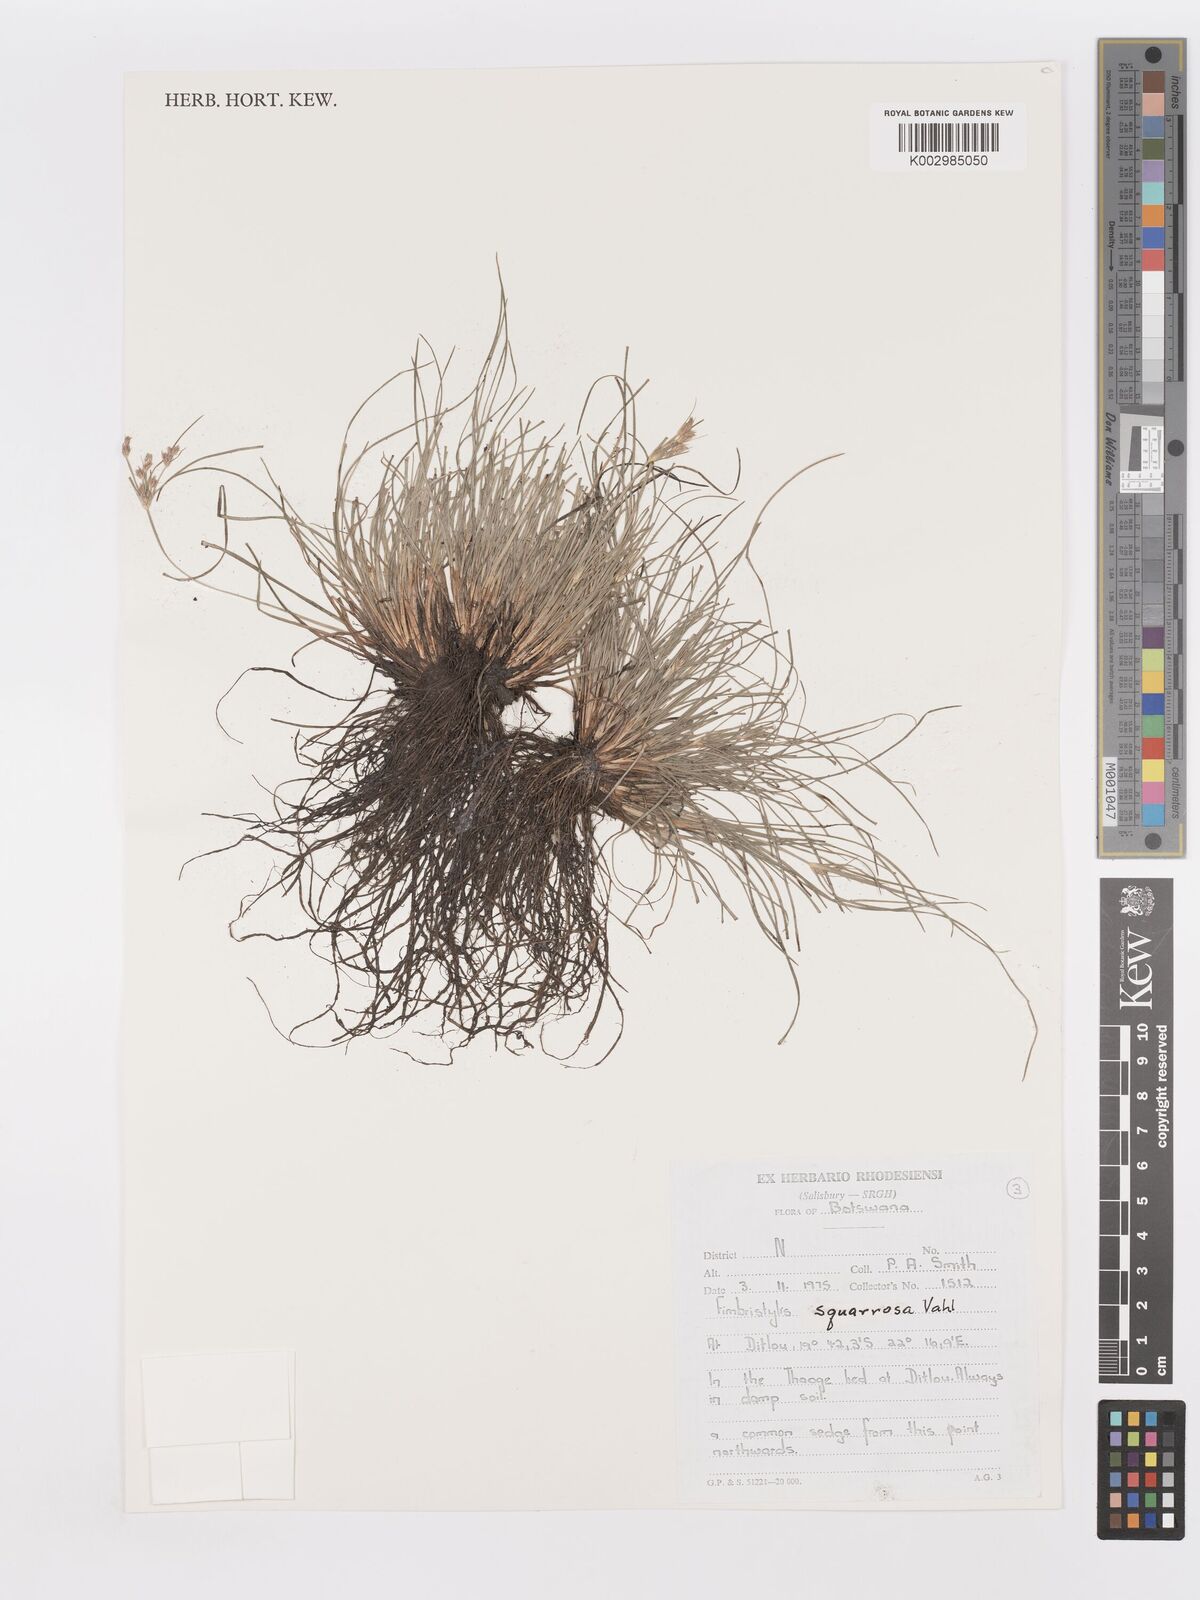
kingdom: Plantae
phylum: Tracheophyta
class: Liliopsida
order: Poales
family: Cyperaceae
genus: Fimbristylis
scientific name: Fimbristylis squarrosa
